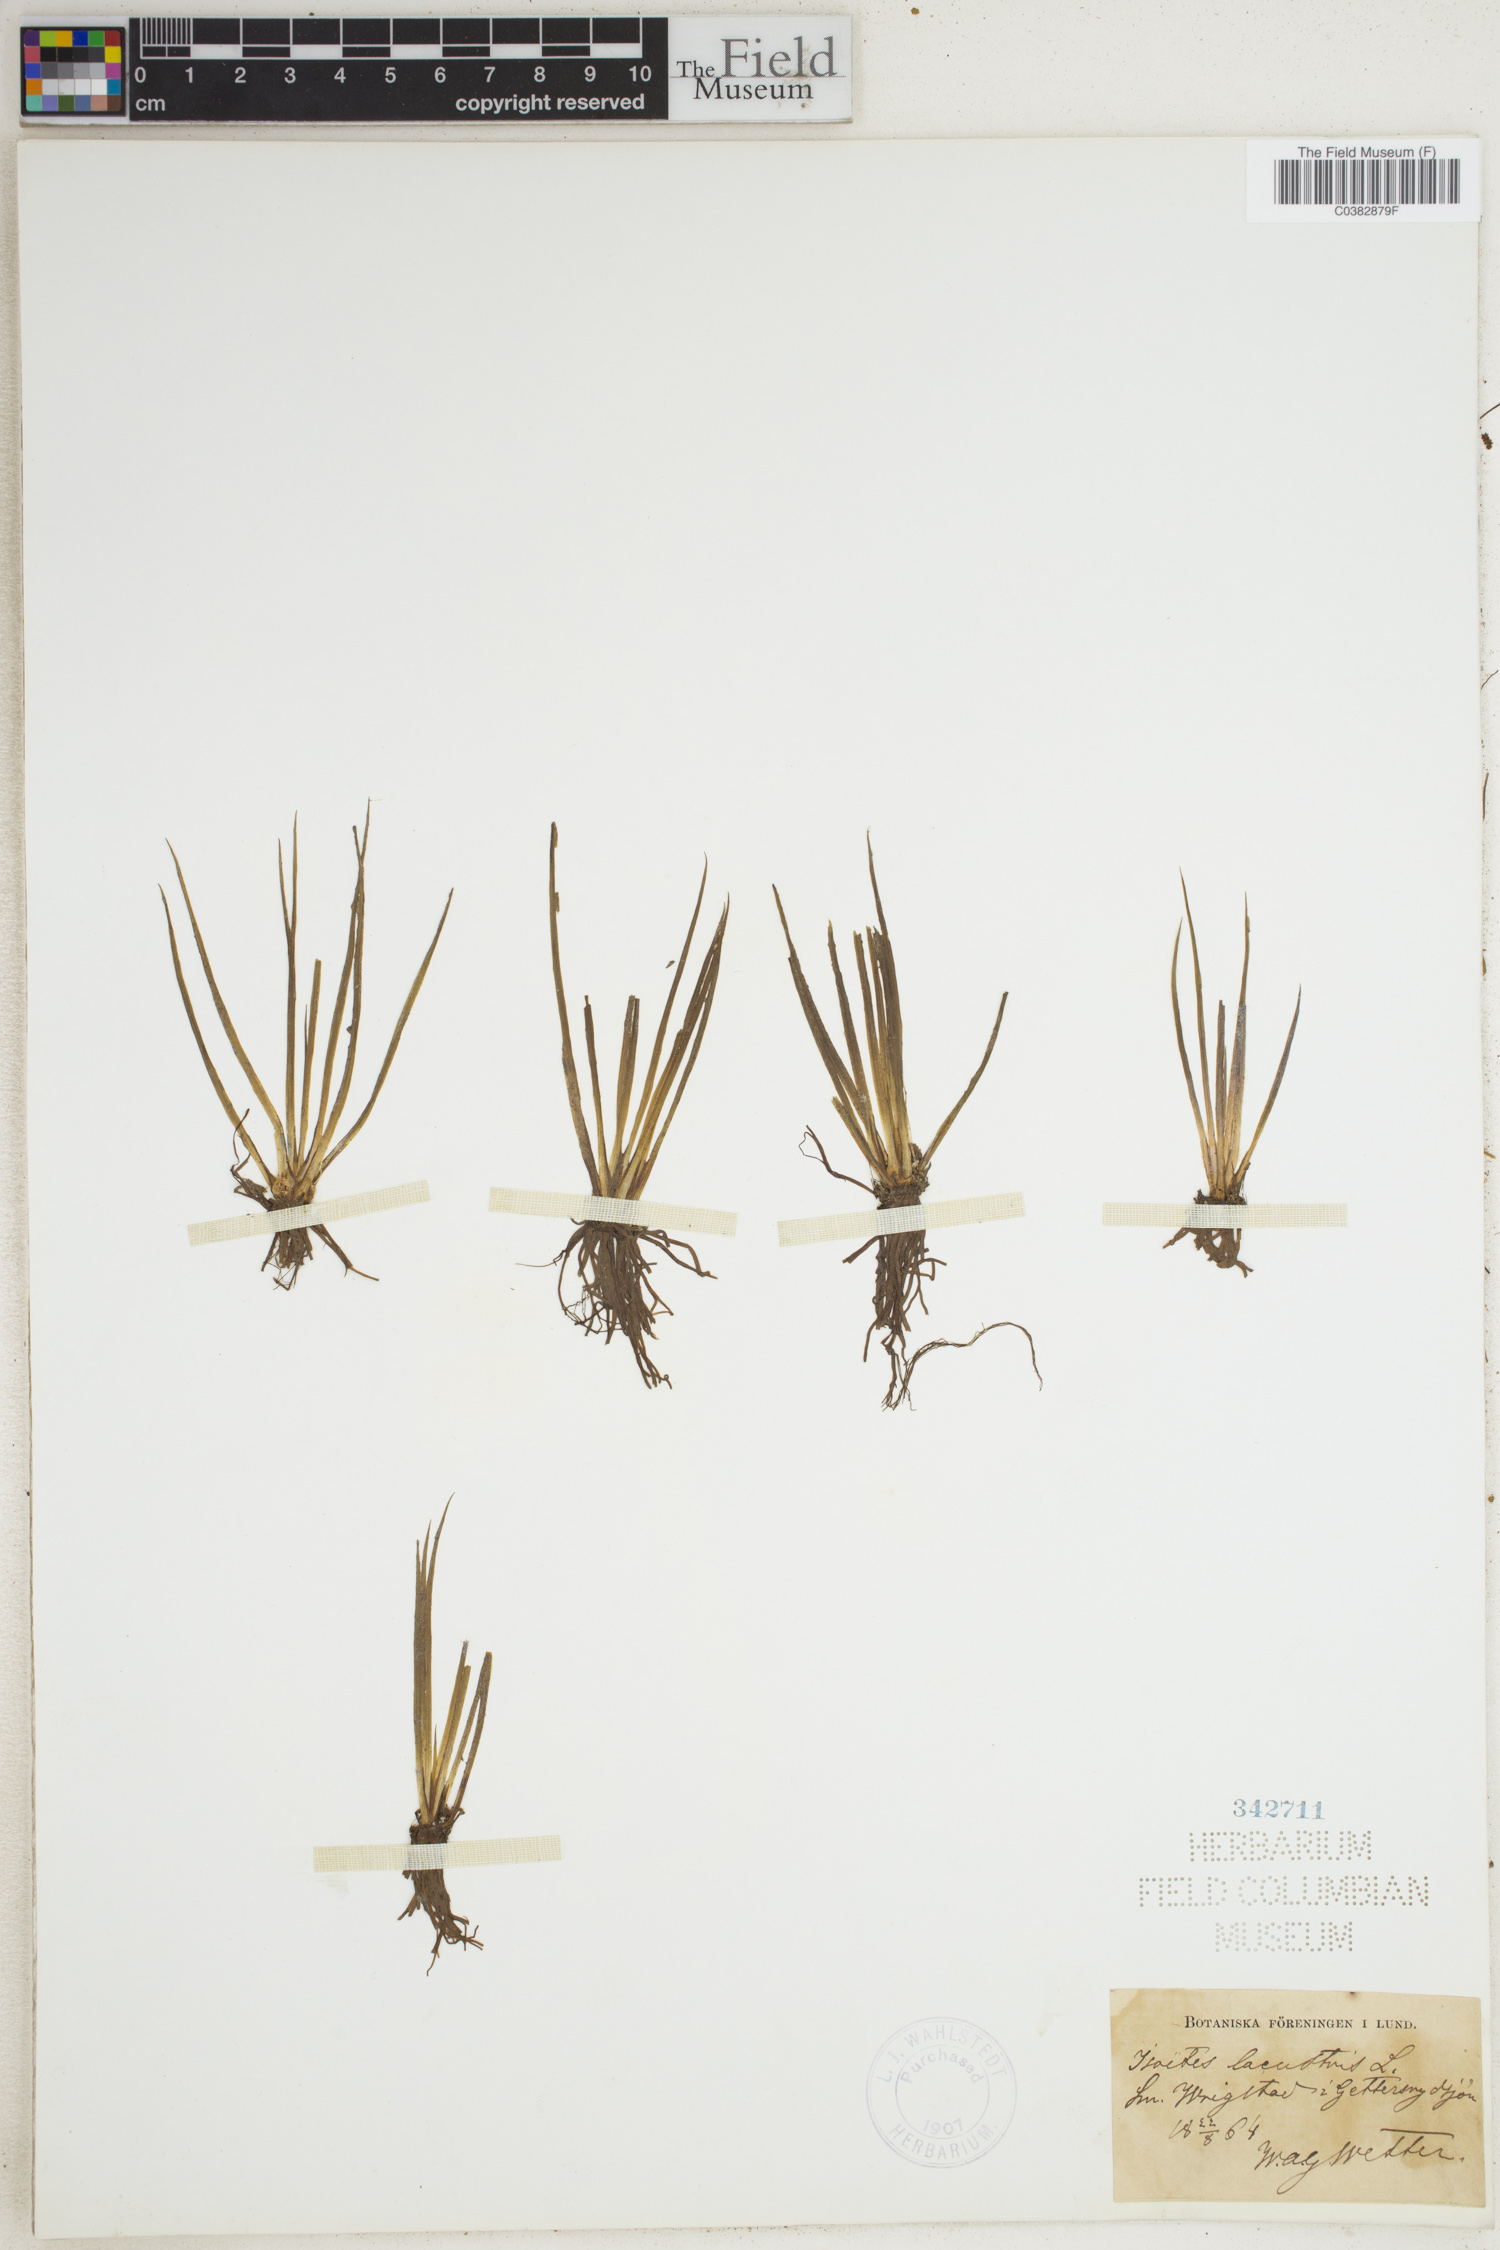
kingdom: Plantae
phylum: Tracheophyta
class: Lycopodiopsida
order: Isoetales
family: Isoetaceae
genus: Isoetes
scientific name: Isoetes lacustris
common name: Common quillwort
